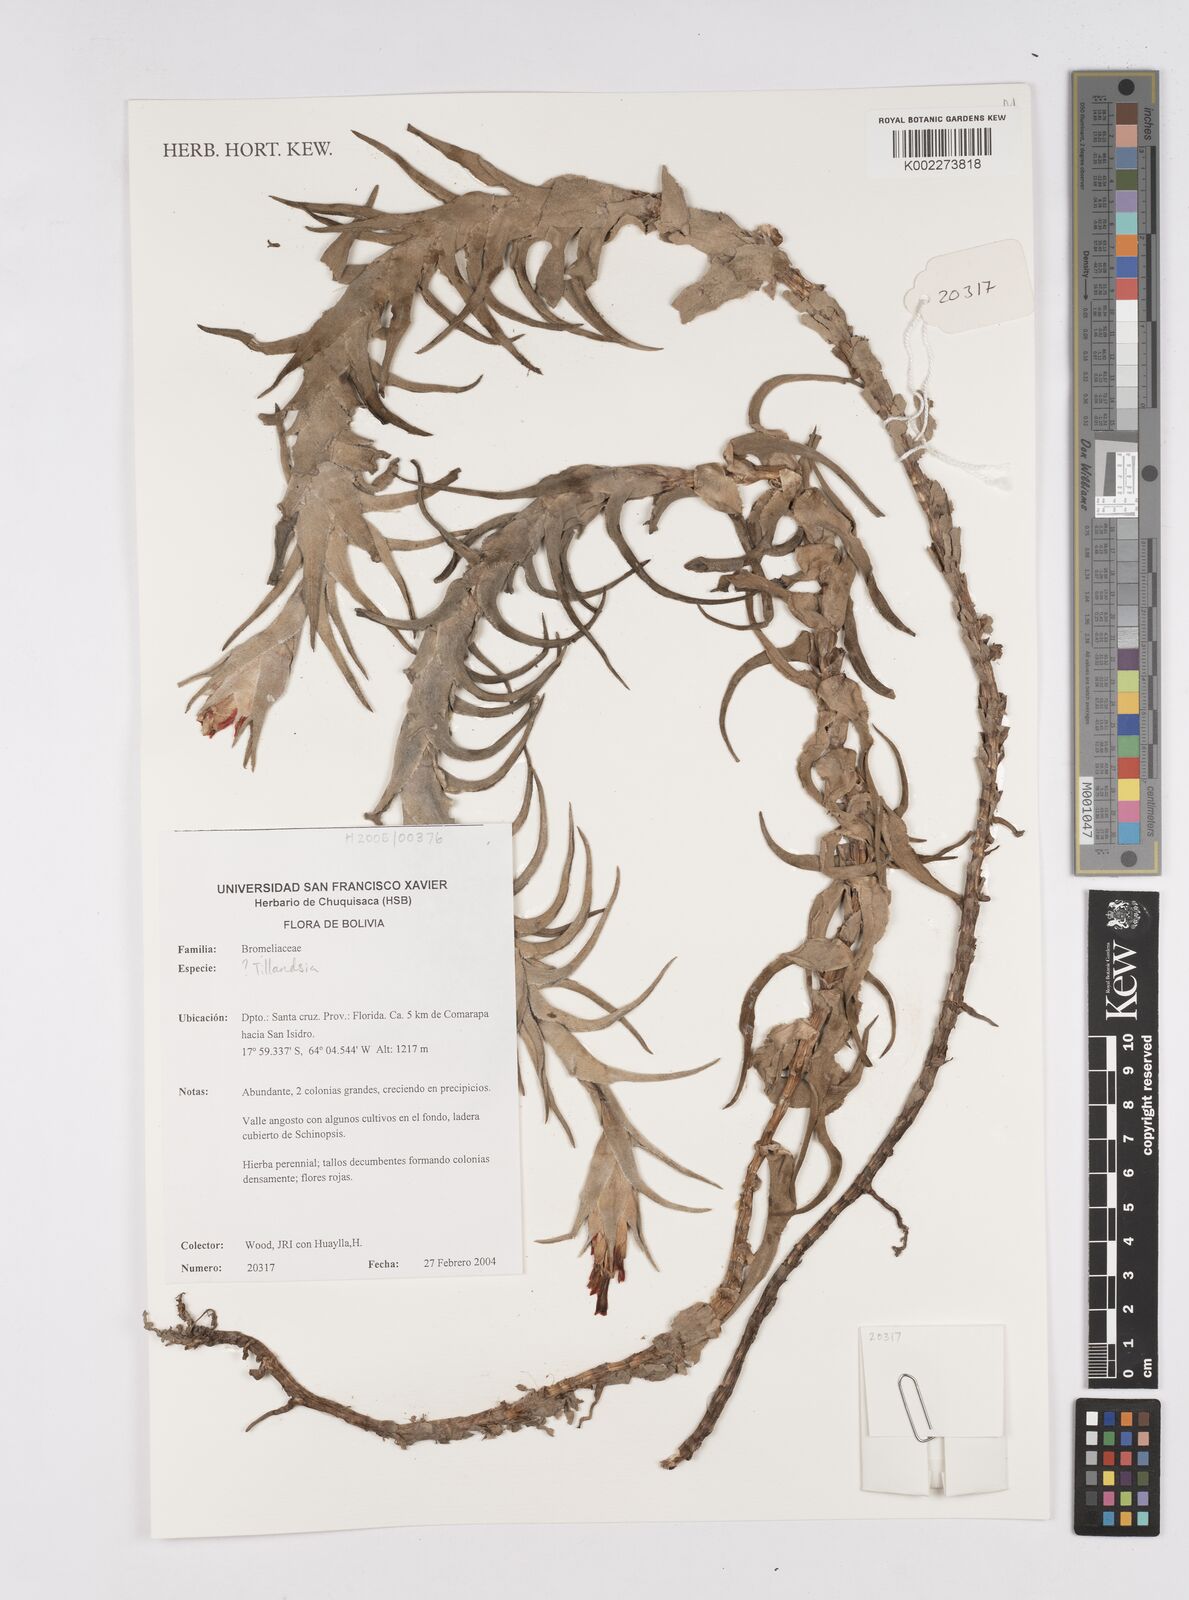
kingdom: Plantae
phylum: Tracheophyta
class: Liliopsida
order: Poales
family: Bromeliaceae
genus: Tillandsia
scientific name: Tillandsia
